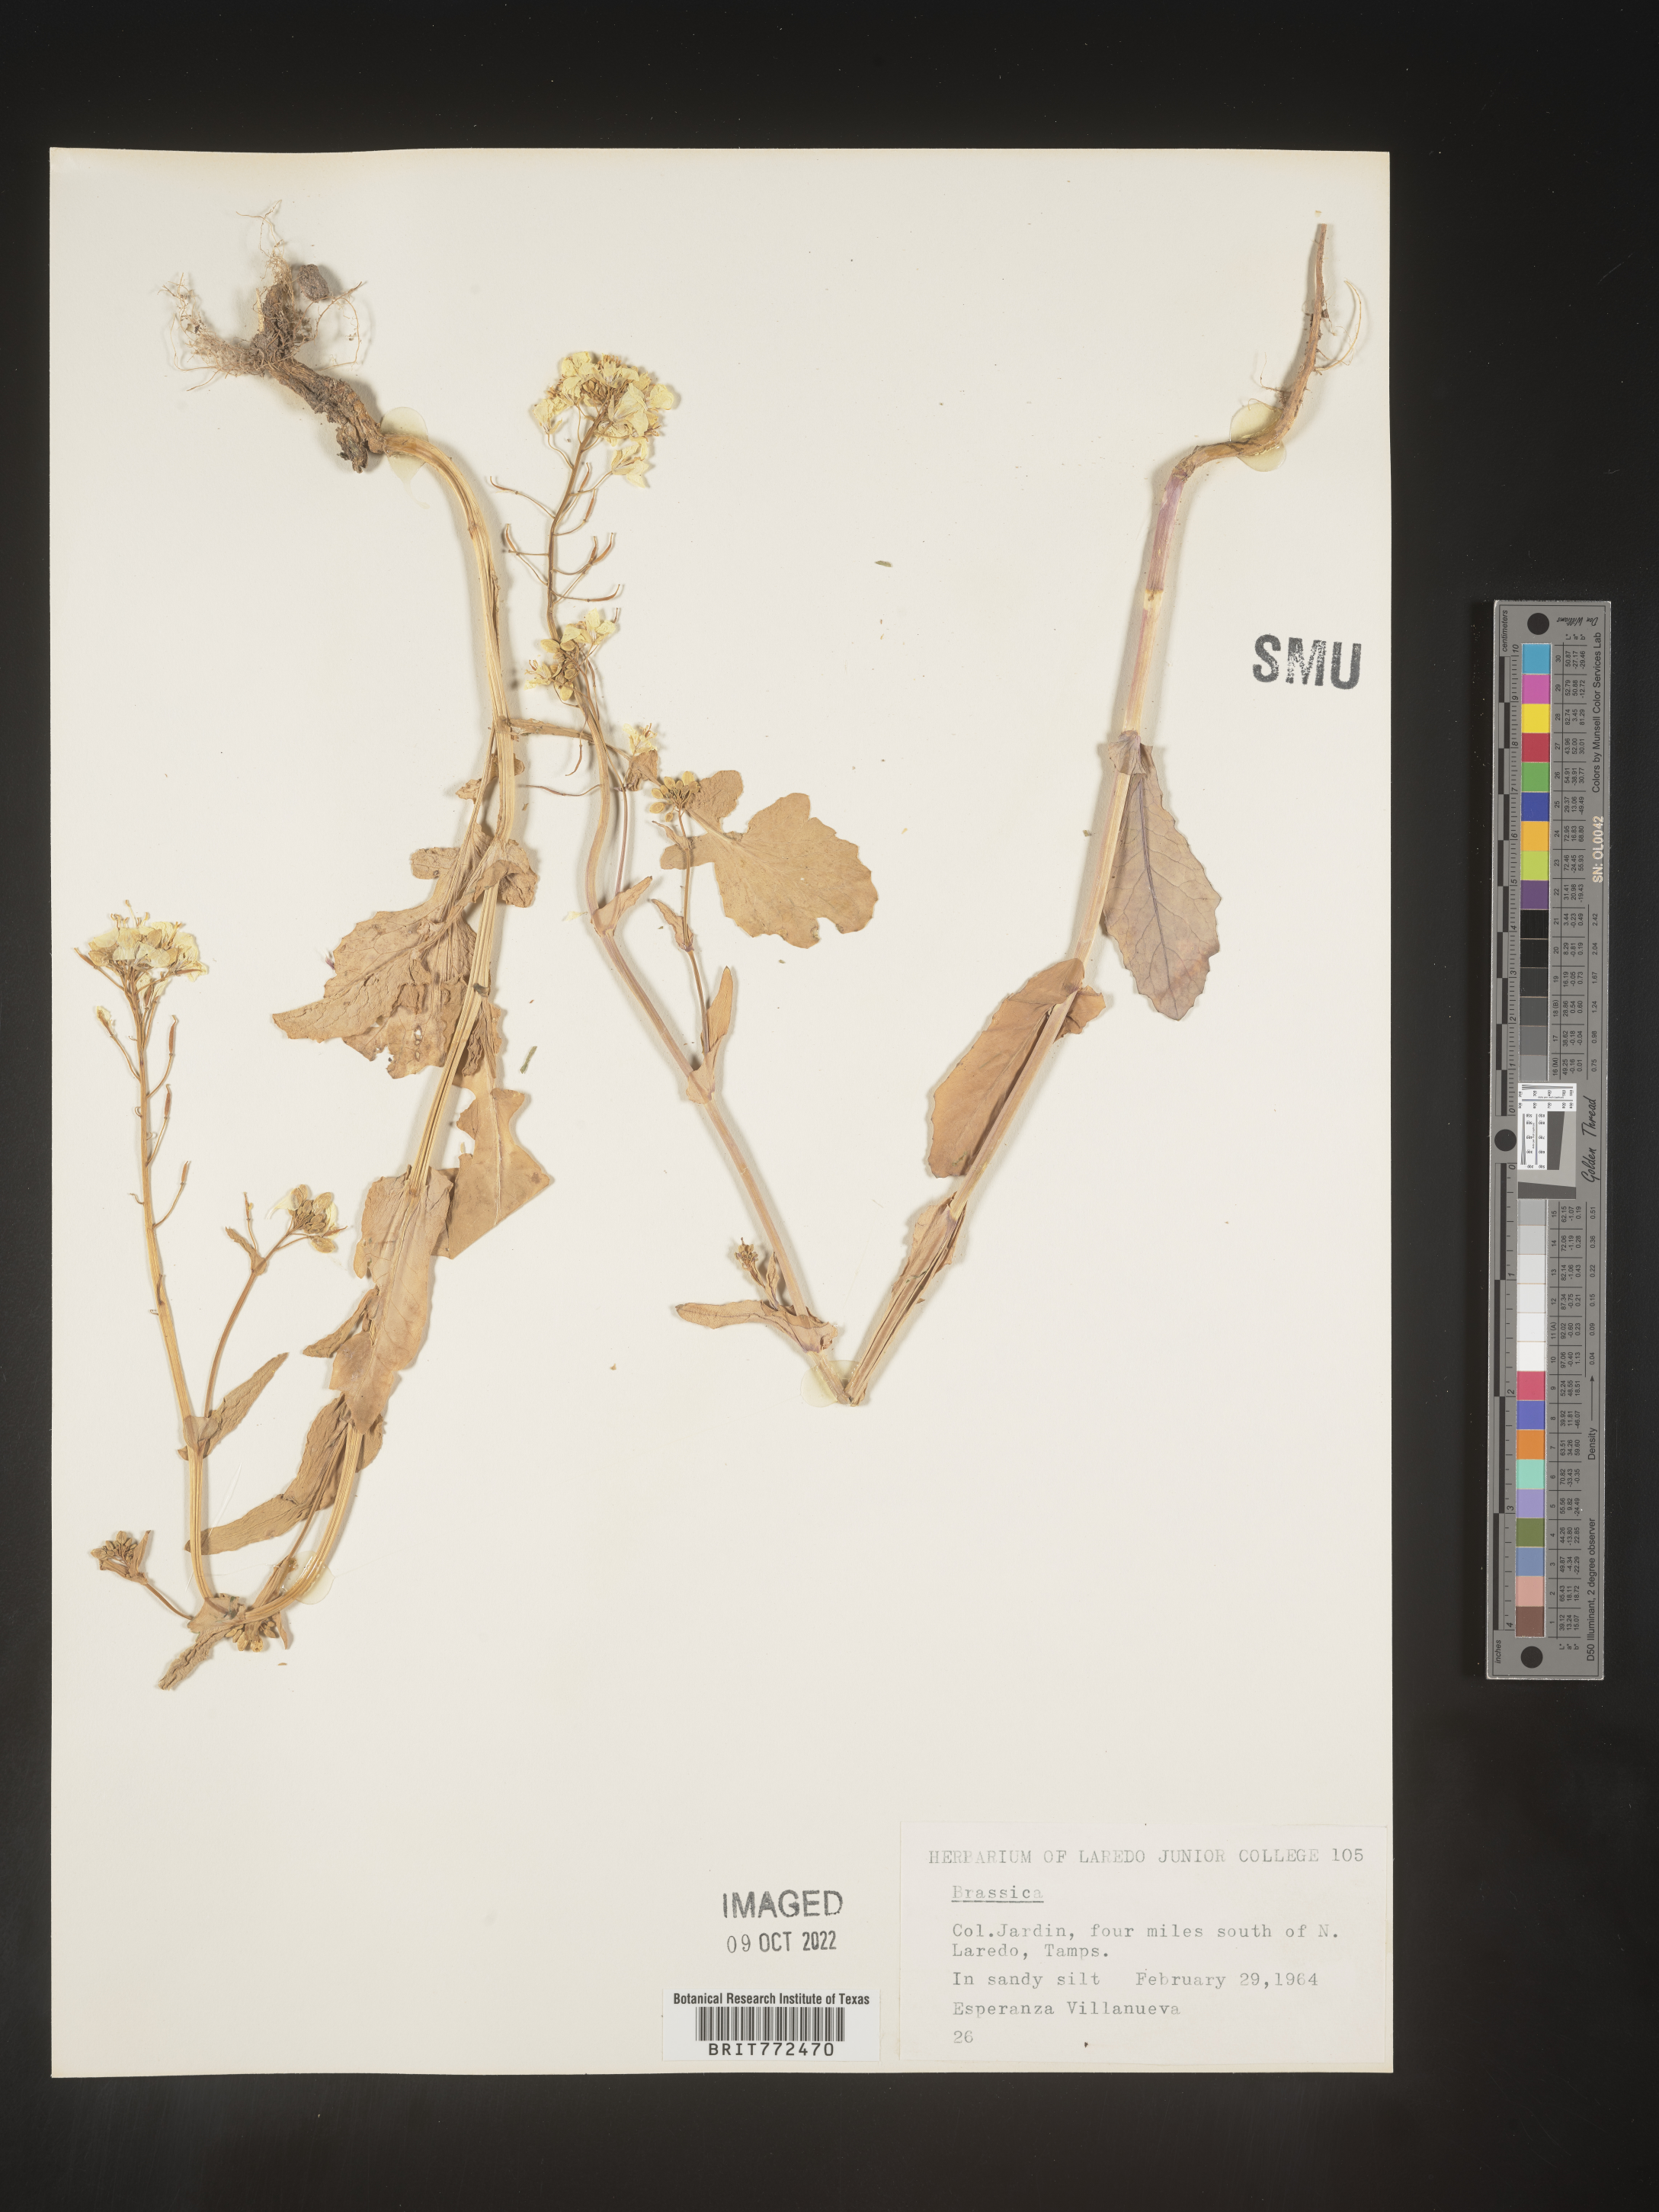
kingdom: Plantae
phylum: Tracheophyta
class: Magnoliopsida
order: Brassicales
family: Brassicaceae
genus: Brassica
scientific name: Brassica
